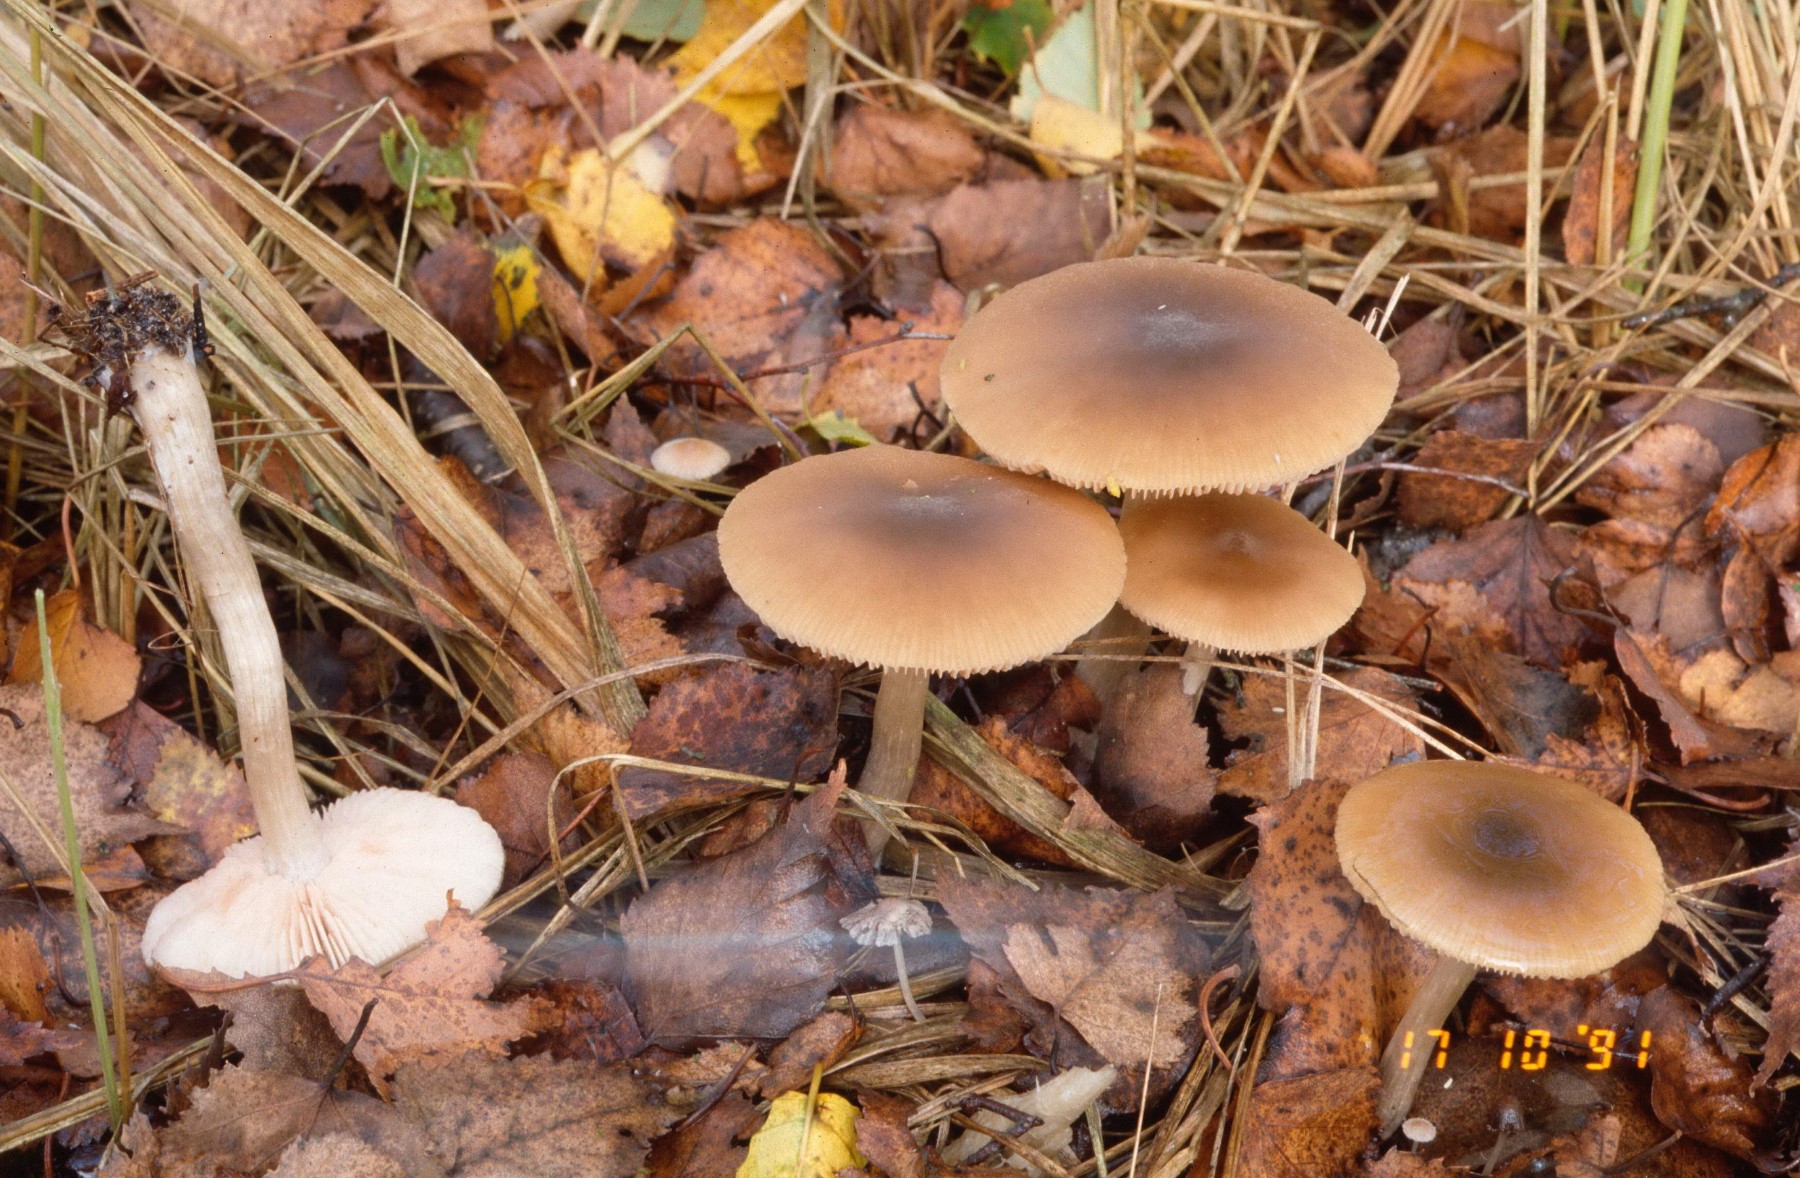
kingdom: Fungi
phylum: Basidiomycota
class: Agaricomycetes
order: Agaricales
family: Entolomataceae
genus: Entoloma
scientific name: Entoloma
